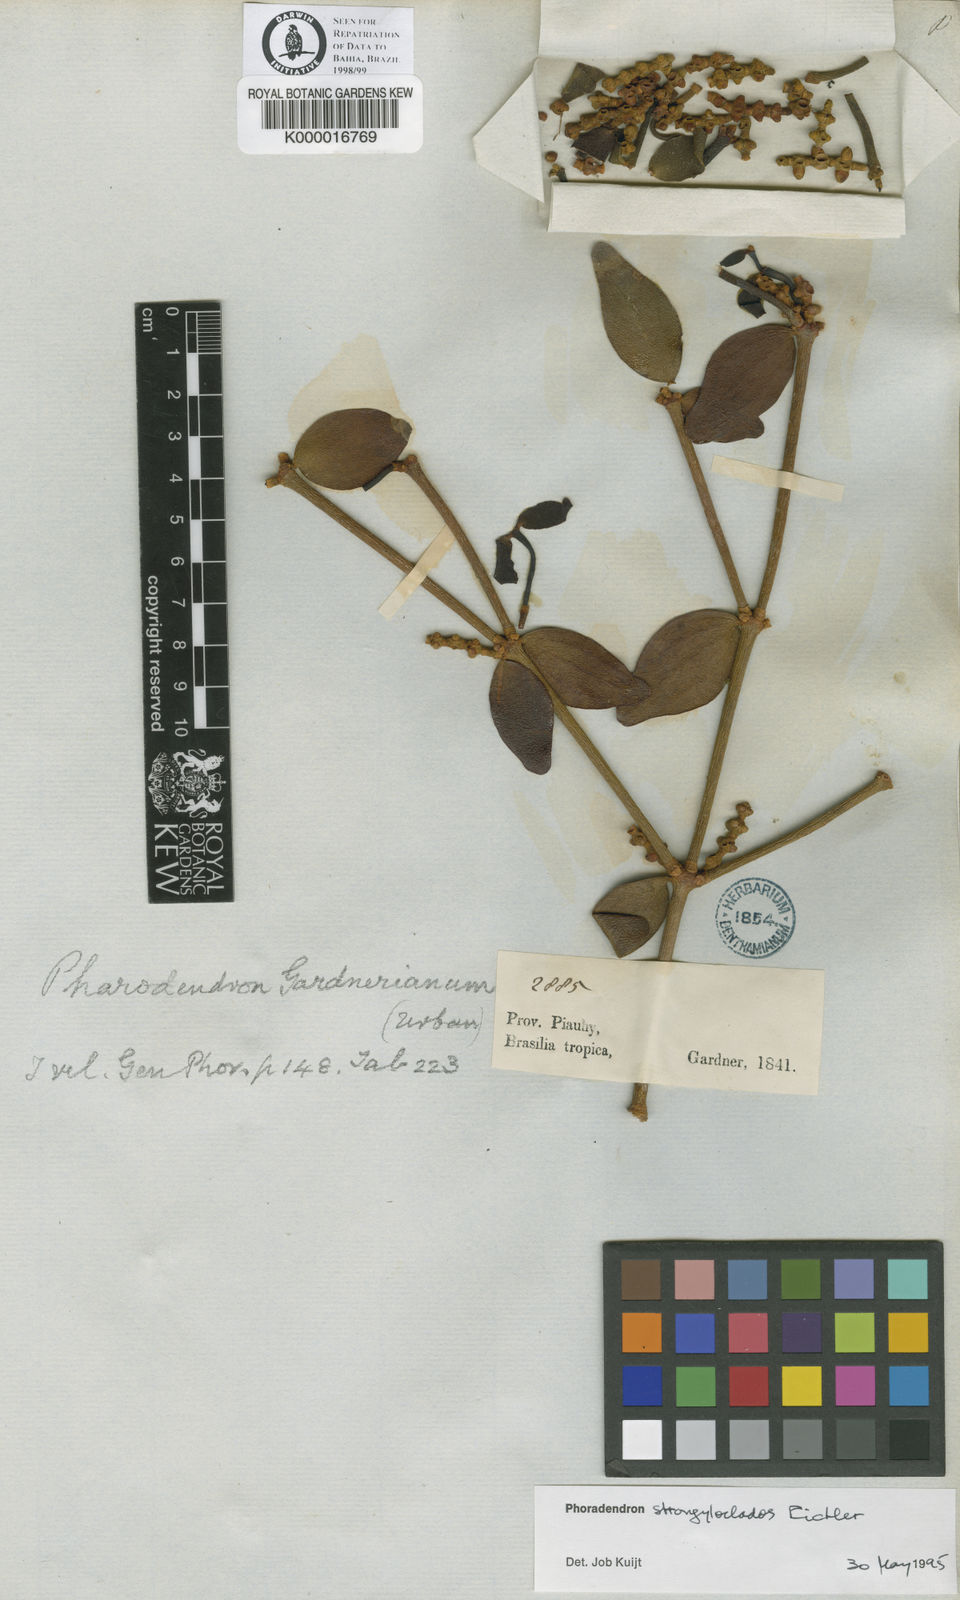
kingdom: Plantae
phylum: Tracheophyta
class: Magnoliopsida
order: Santalales
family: Viscaceae
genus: Phoradendron
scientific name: Phoradendron strongyloclados
